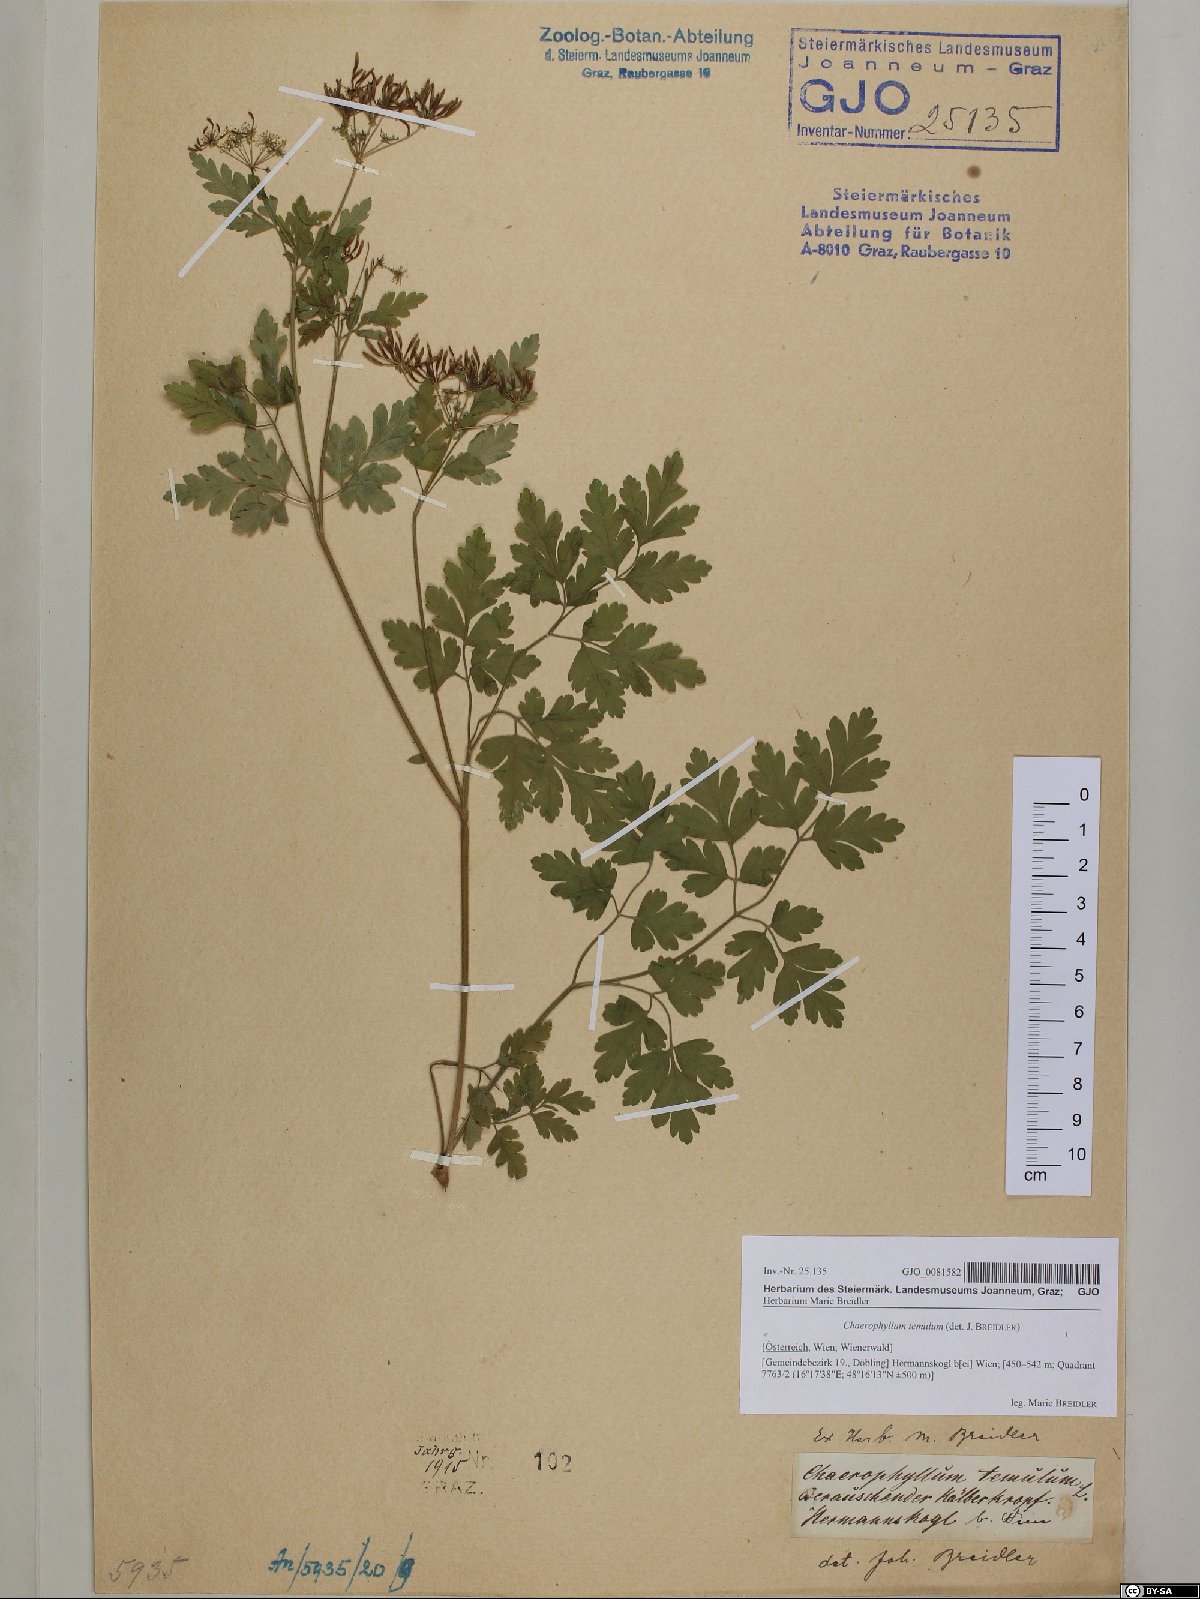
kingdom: Plantae
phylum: Tracheophyta
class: Magnoliopsida
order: Apiales
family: Apiaceae
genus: Chaerophyllum
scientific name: Chaerophyllum temulum
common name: Rough chervil
